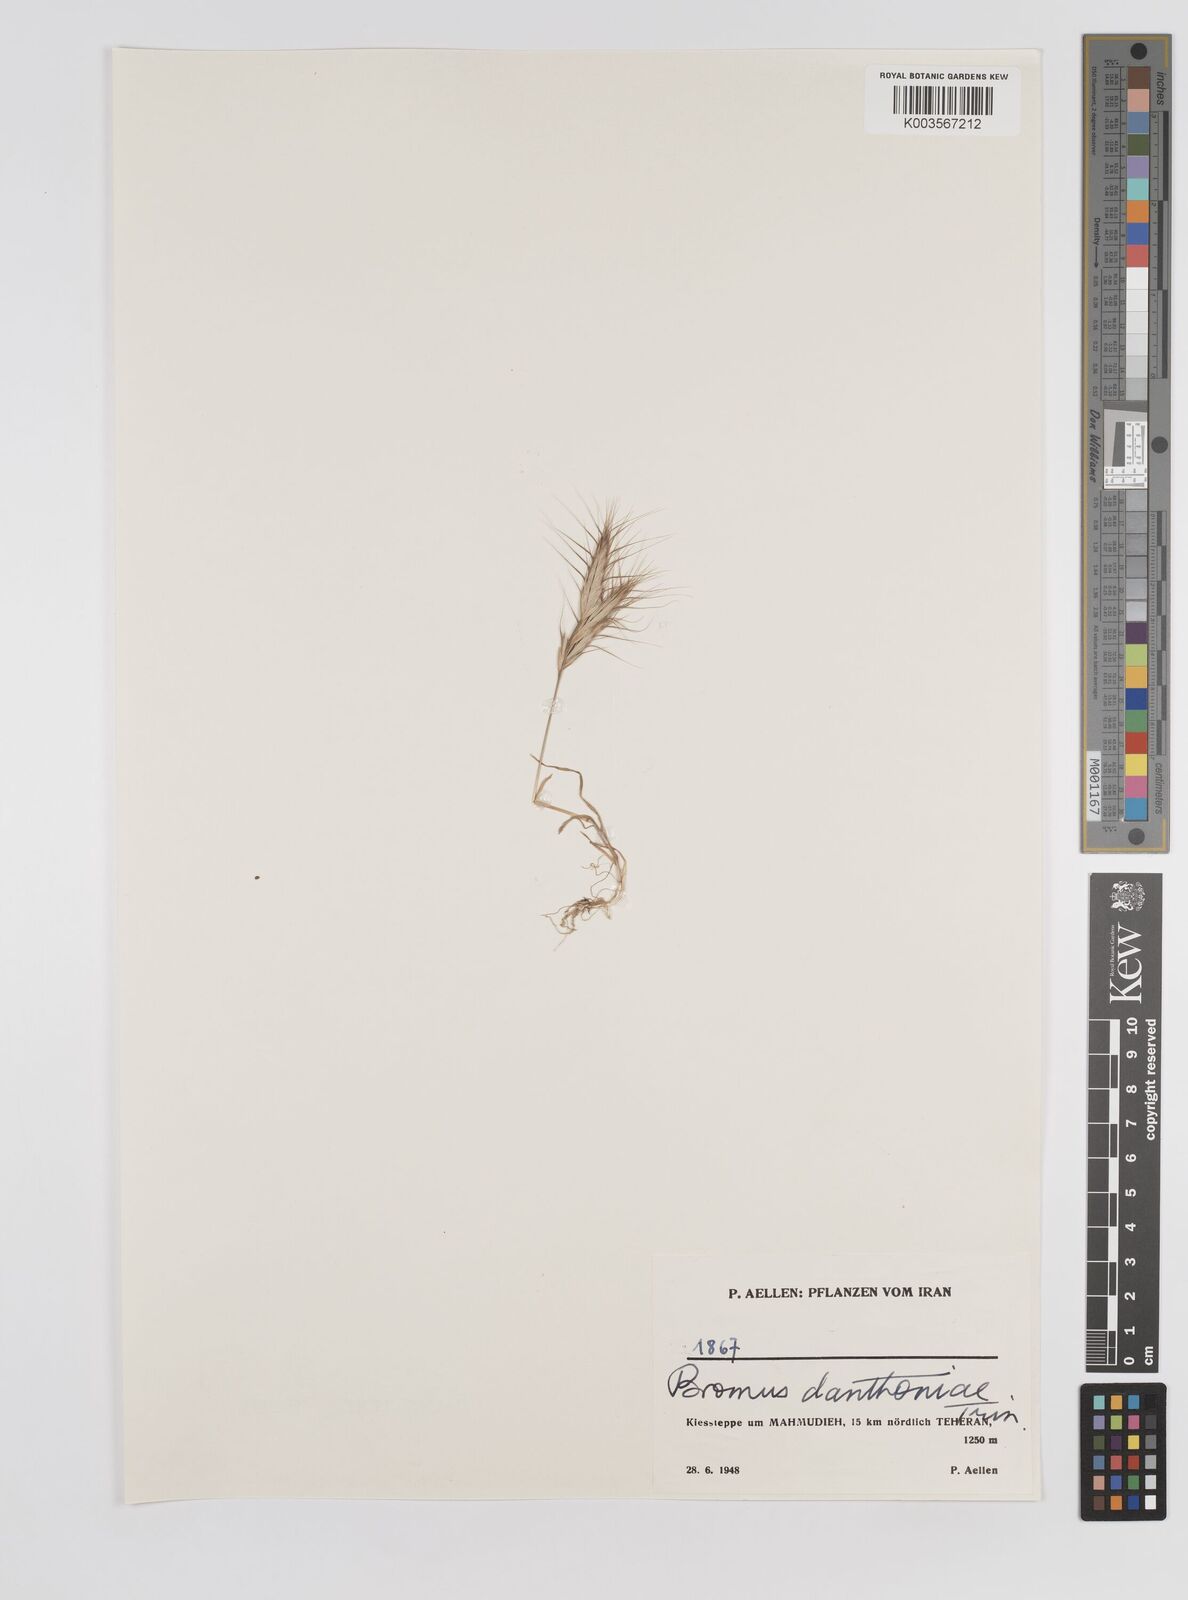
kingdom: Plantae
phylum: Tracheophyta
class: Liliopsida
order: Poales
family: Poaceae
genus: Bromus
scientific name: Bromus danthoniae
